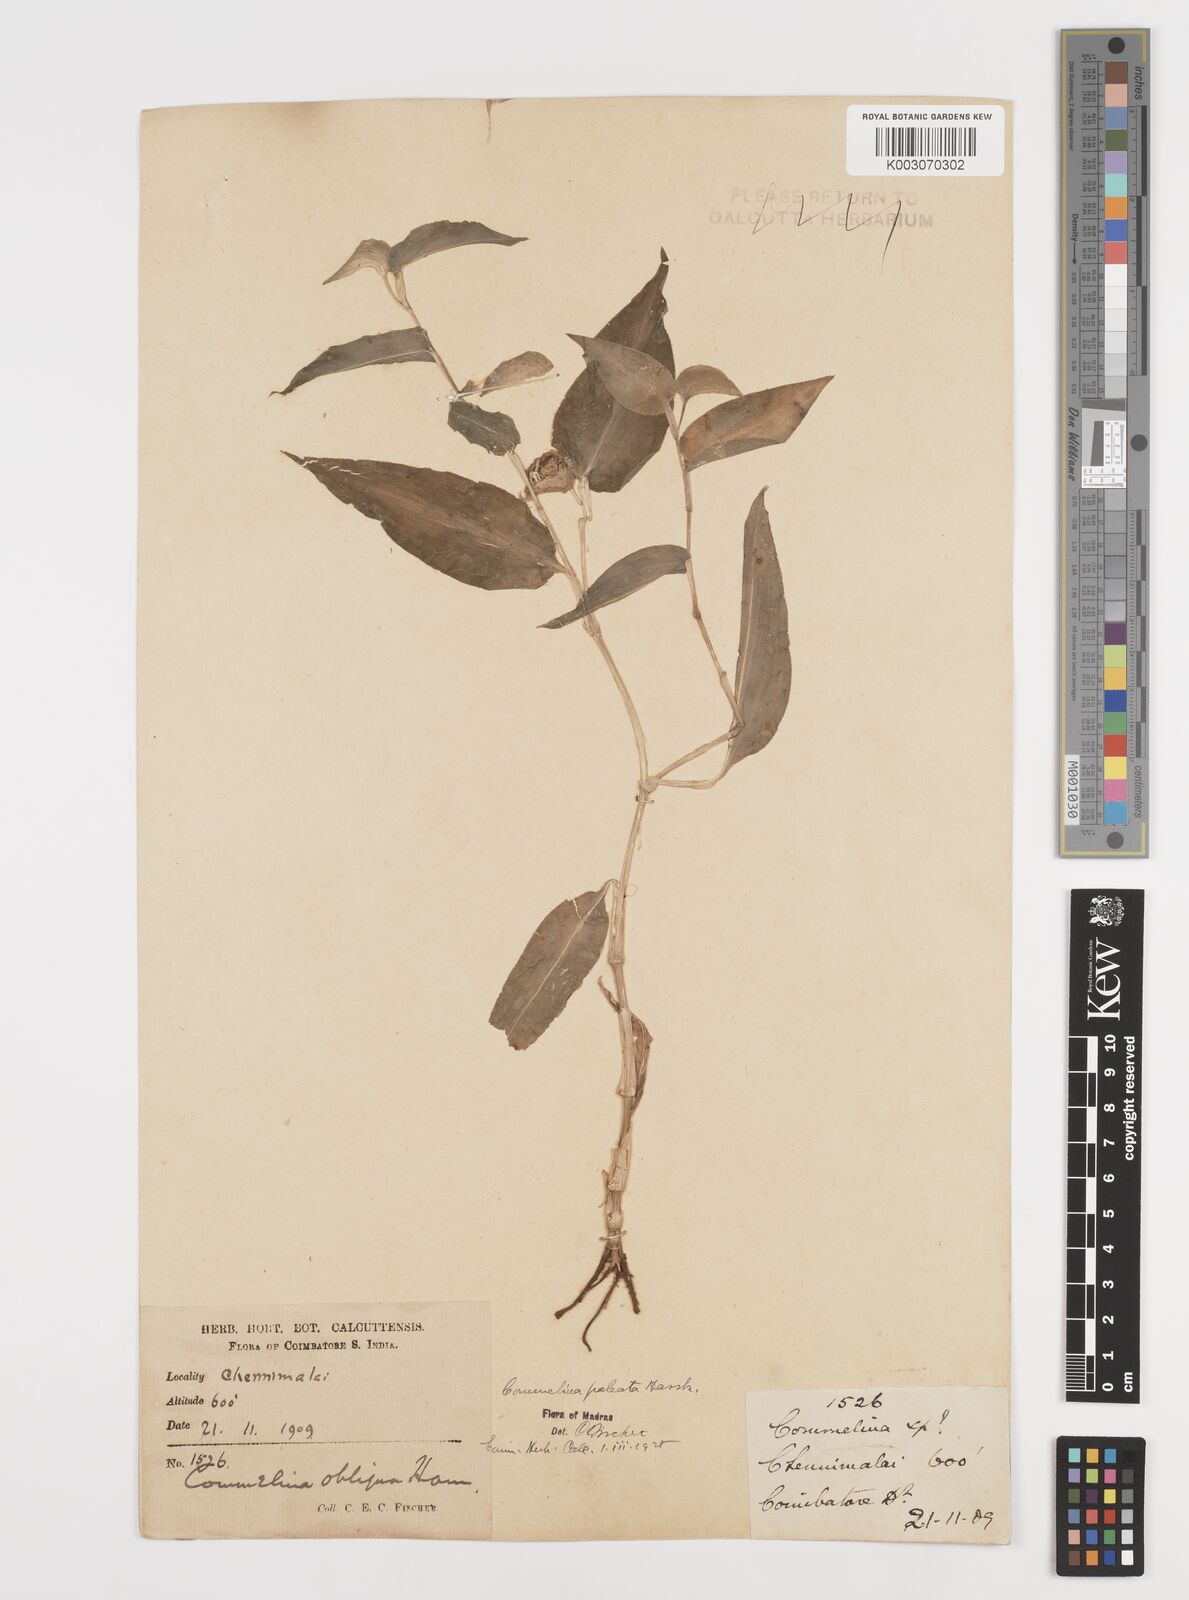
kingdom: Plantae
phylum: Tracheophyta
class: Liliopsida
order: Commelinales
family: Commelinaceae
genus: Commelina
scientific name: Commelina paleata
